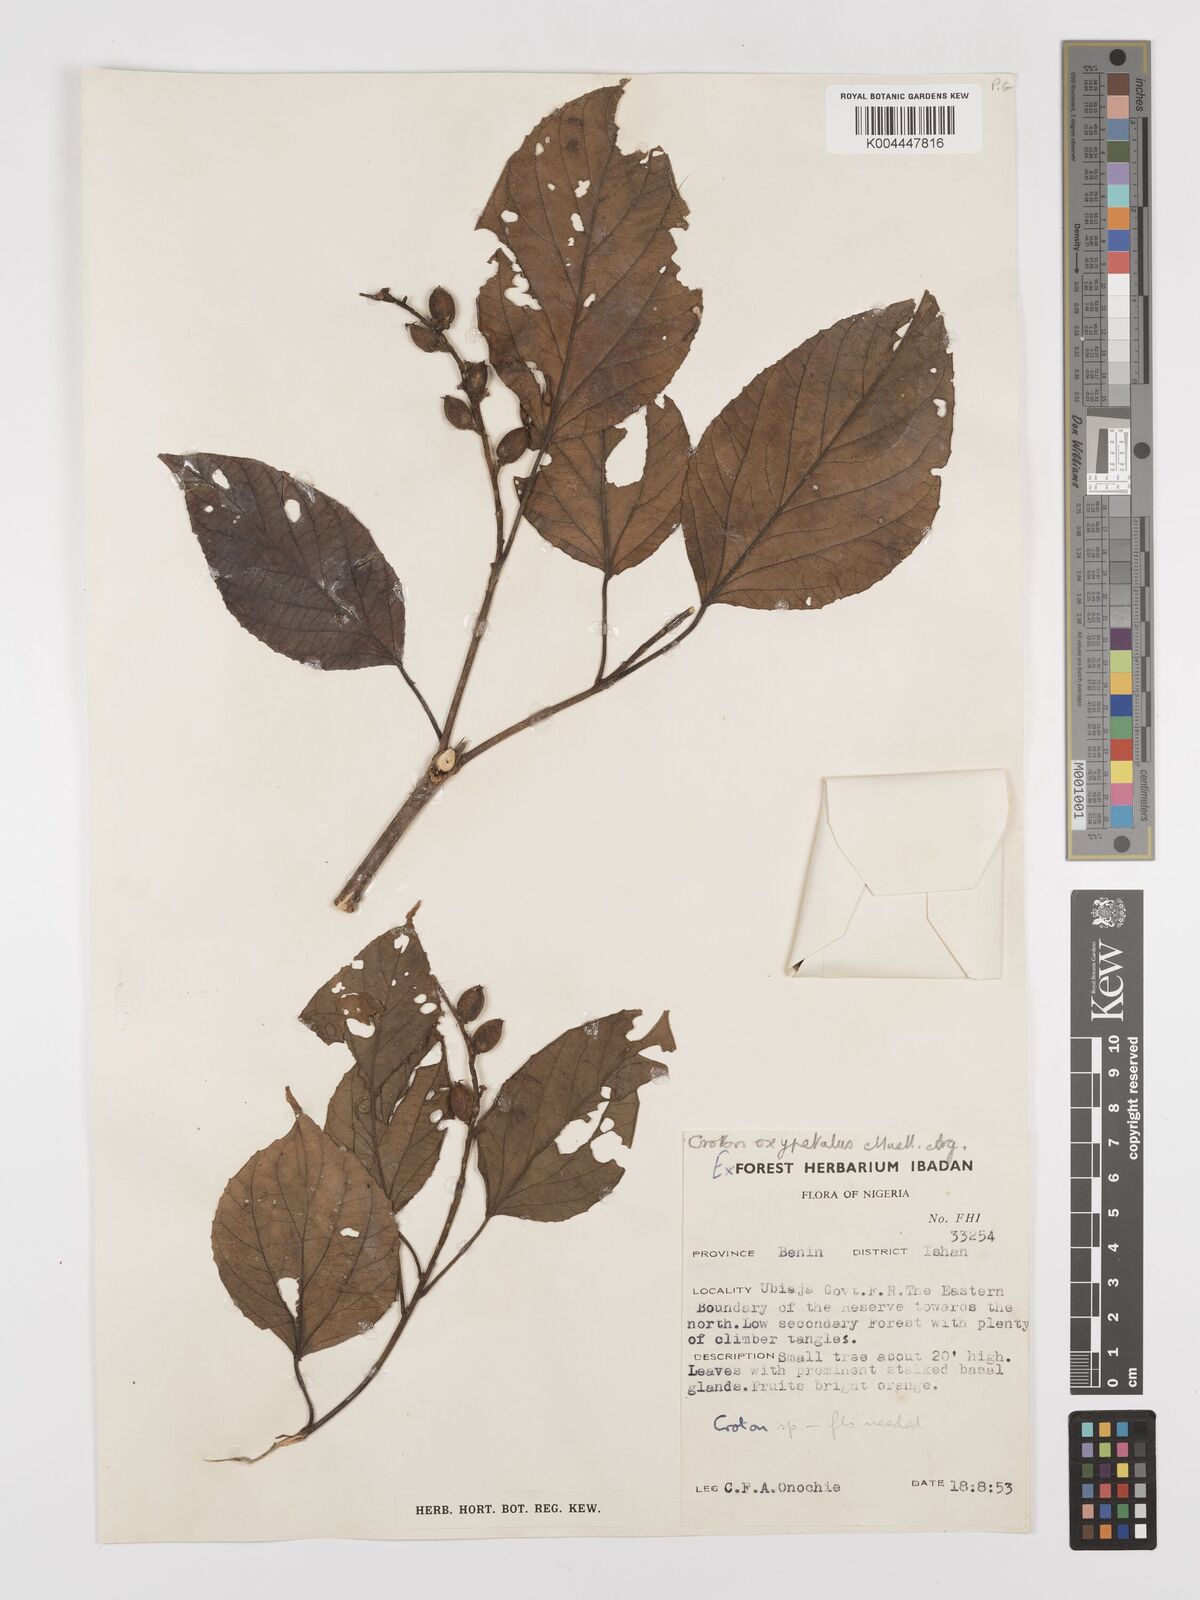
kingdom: Plantae
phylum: Tracheophyta
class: Magnoliopsida
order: Malpighiales
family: Euphorbiaceae
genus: Croton
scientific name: Croton
